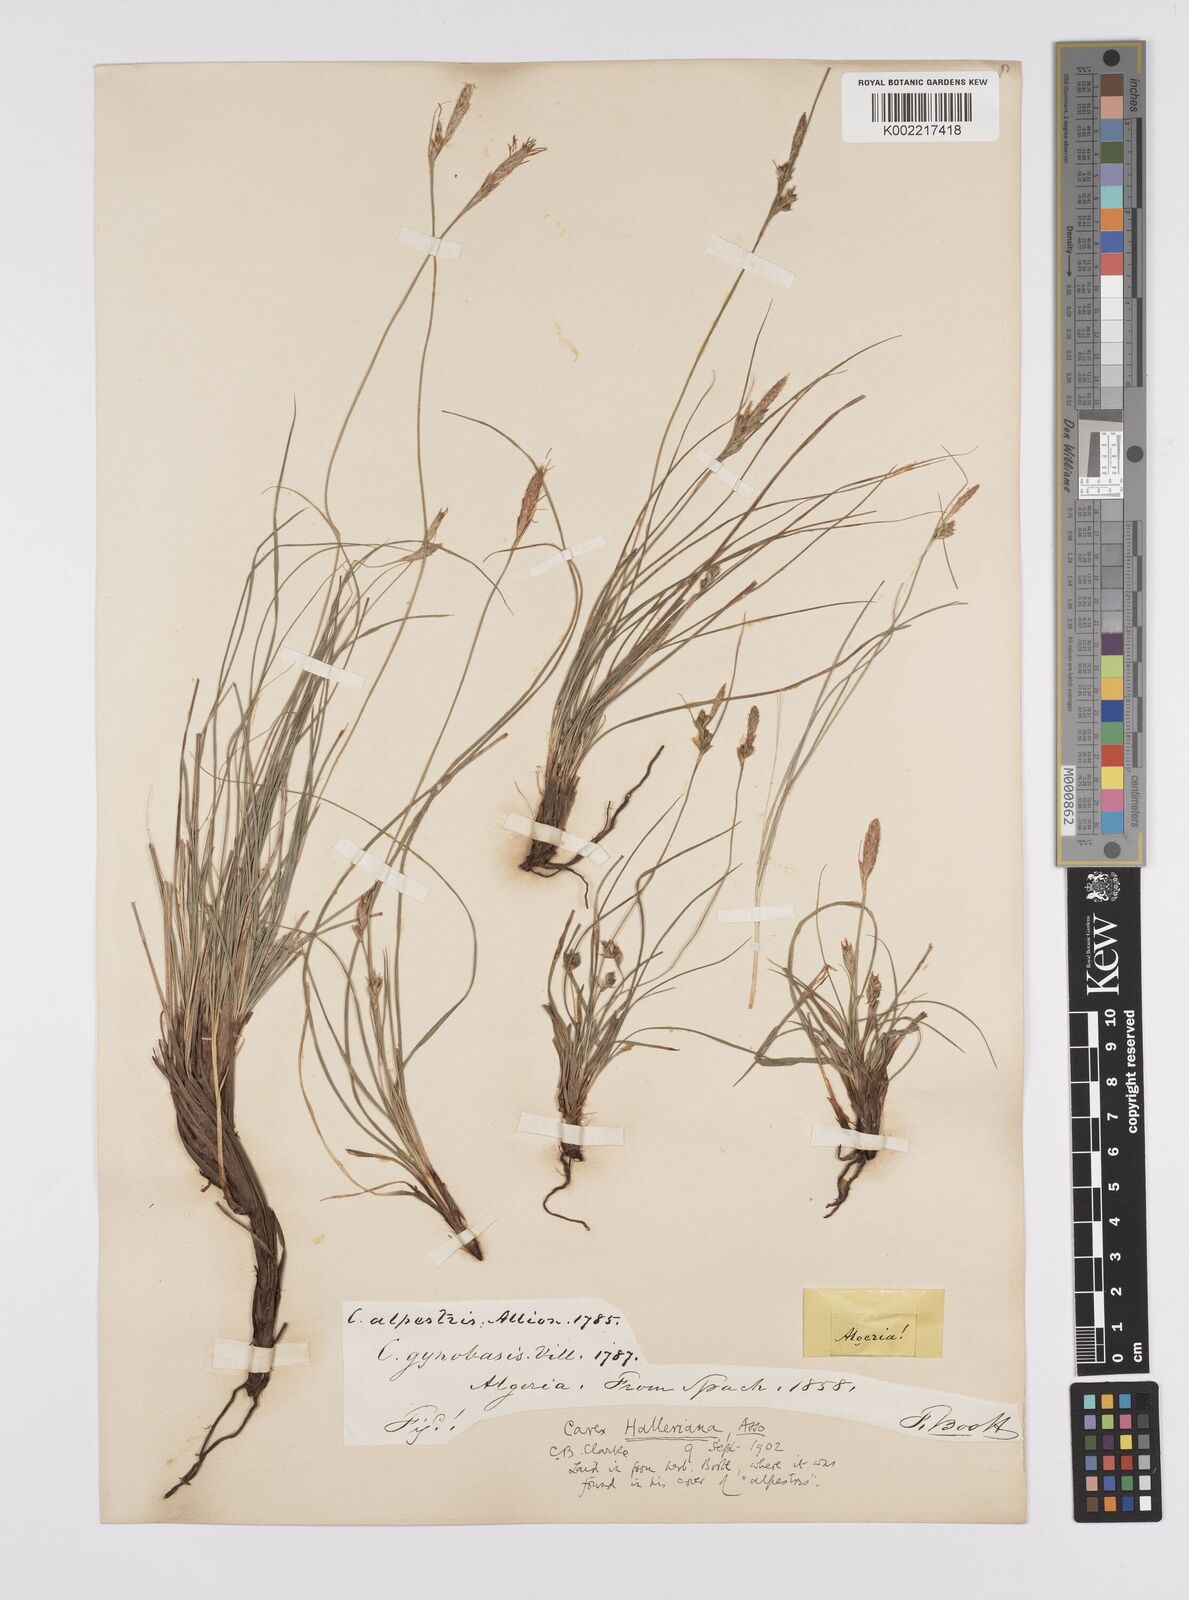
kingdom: Plantae
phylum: Tracheophyta
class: Liliopsida
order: Poales
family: Cyperaceae
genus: Carex
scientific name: Carex halleriana
